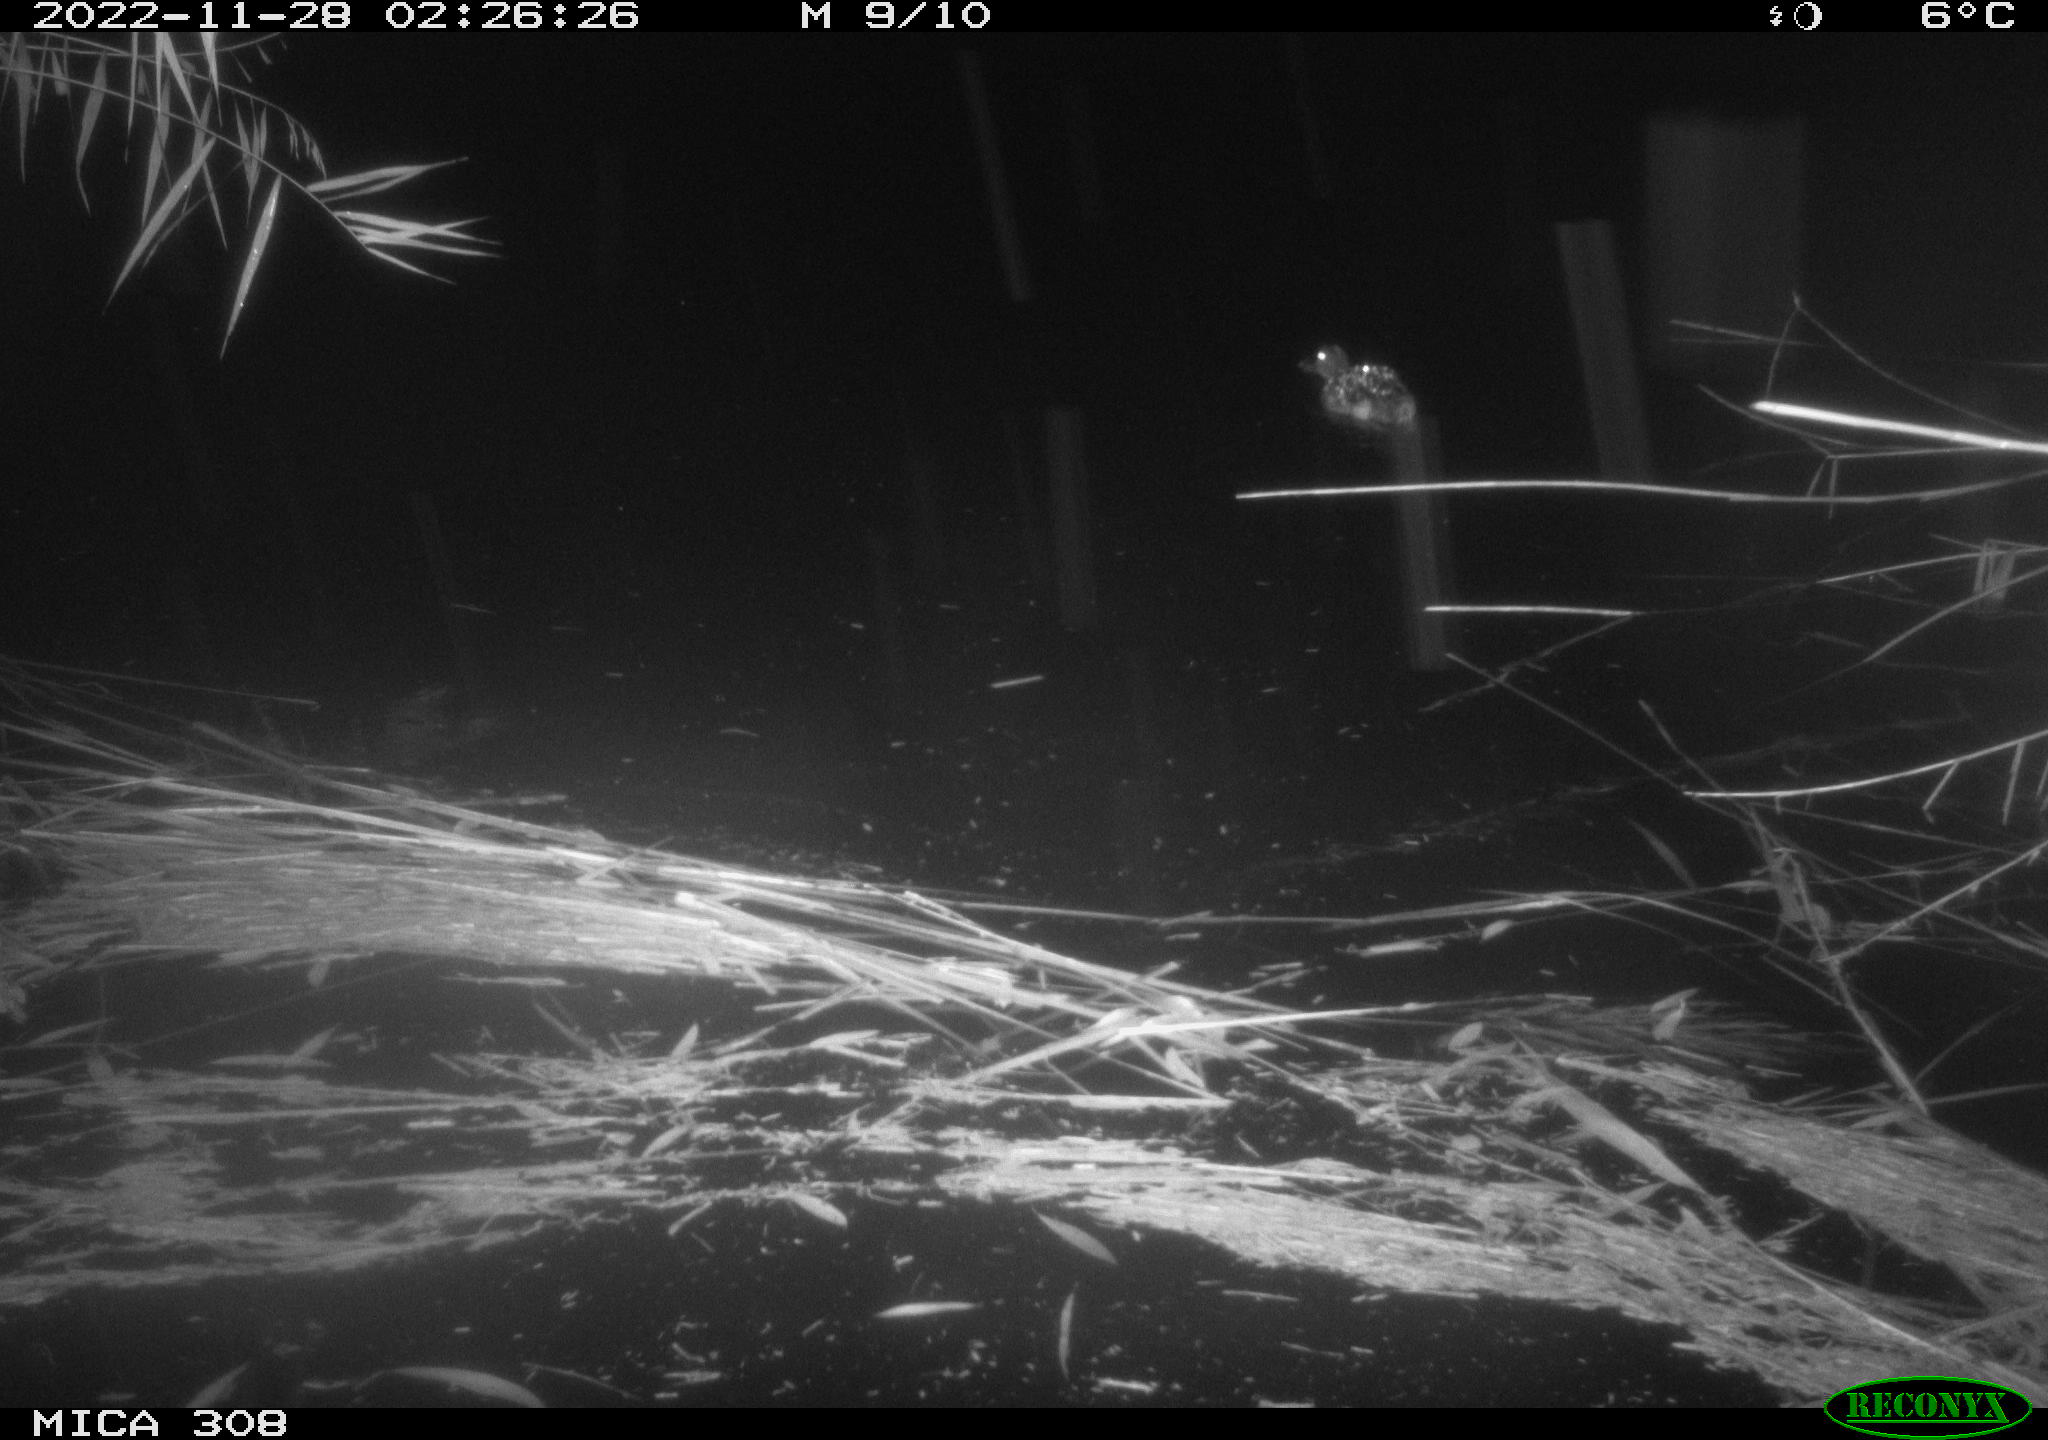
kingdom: Animalia
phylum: Chordata
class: Aves
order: Anseriformes
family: Anatidae
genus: Anas
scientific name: Anas
